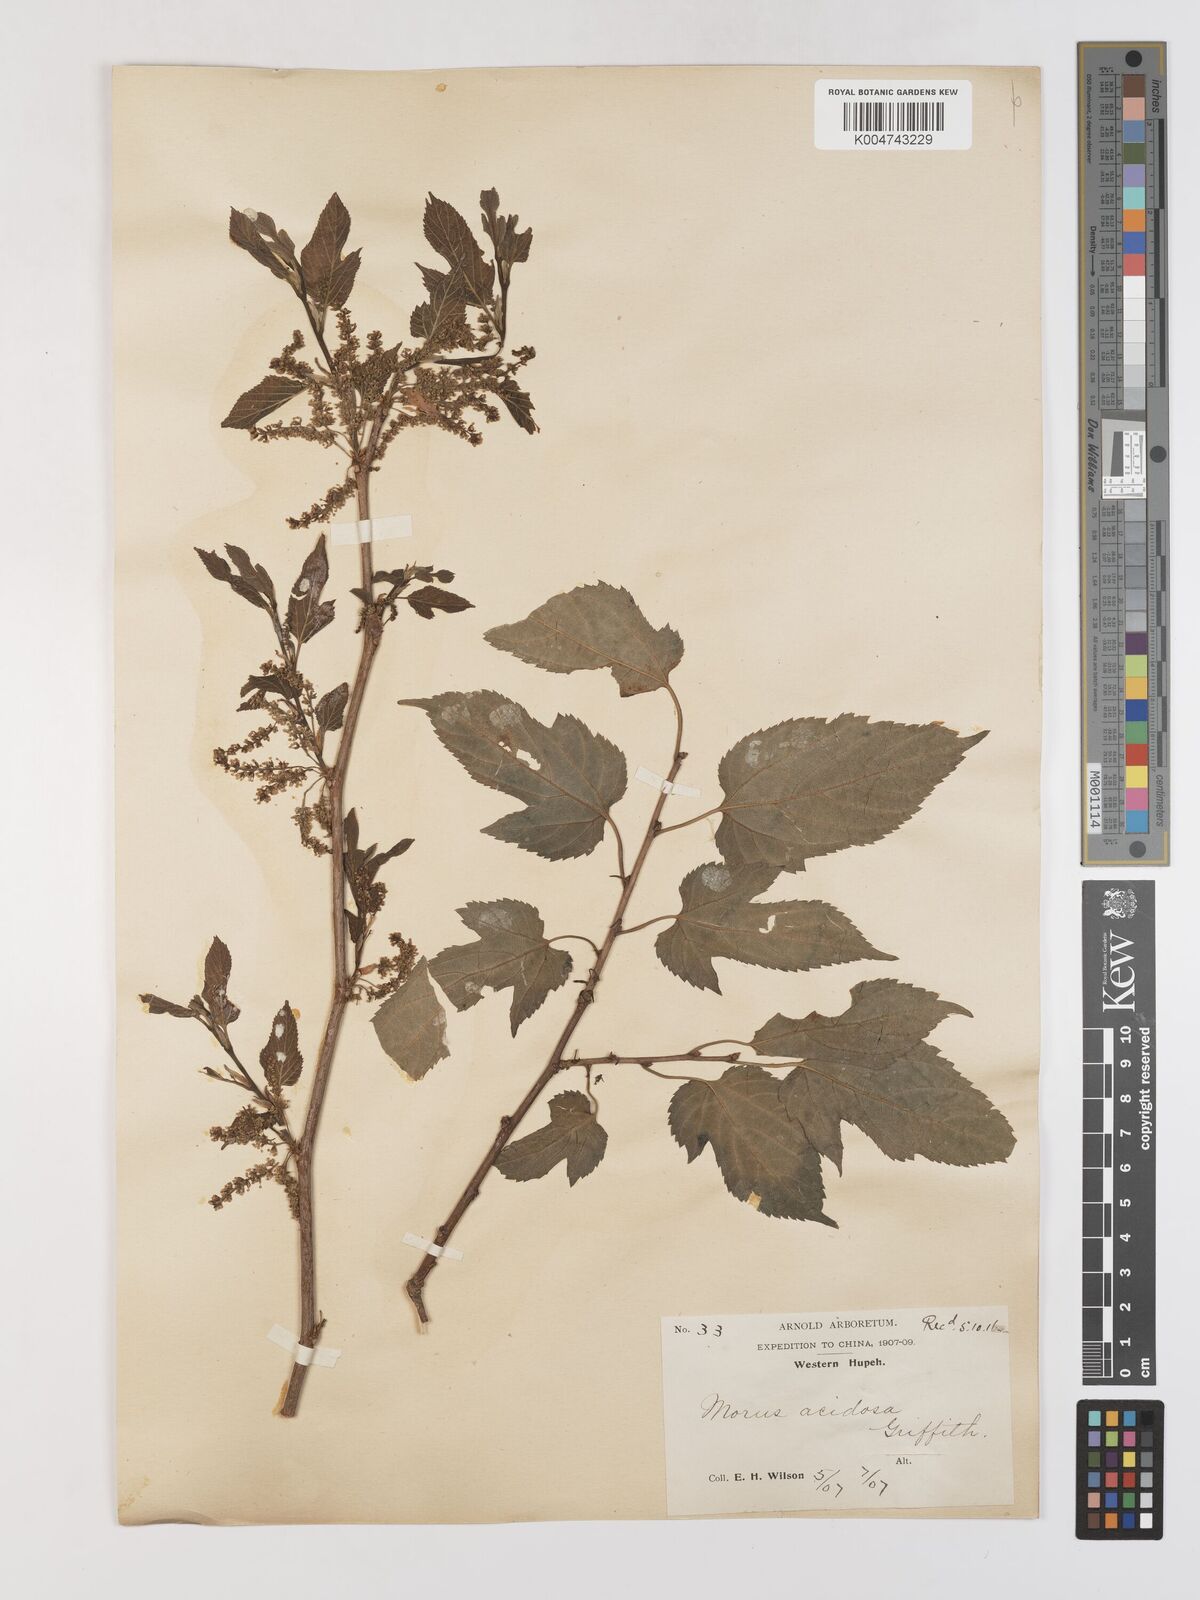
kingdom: Plantae
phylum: Tracheophyta
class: Magnoliopsida
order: Rosales
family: Moraceae
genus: Morus
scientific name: Morus indica
